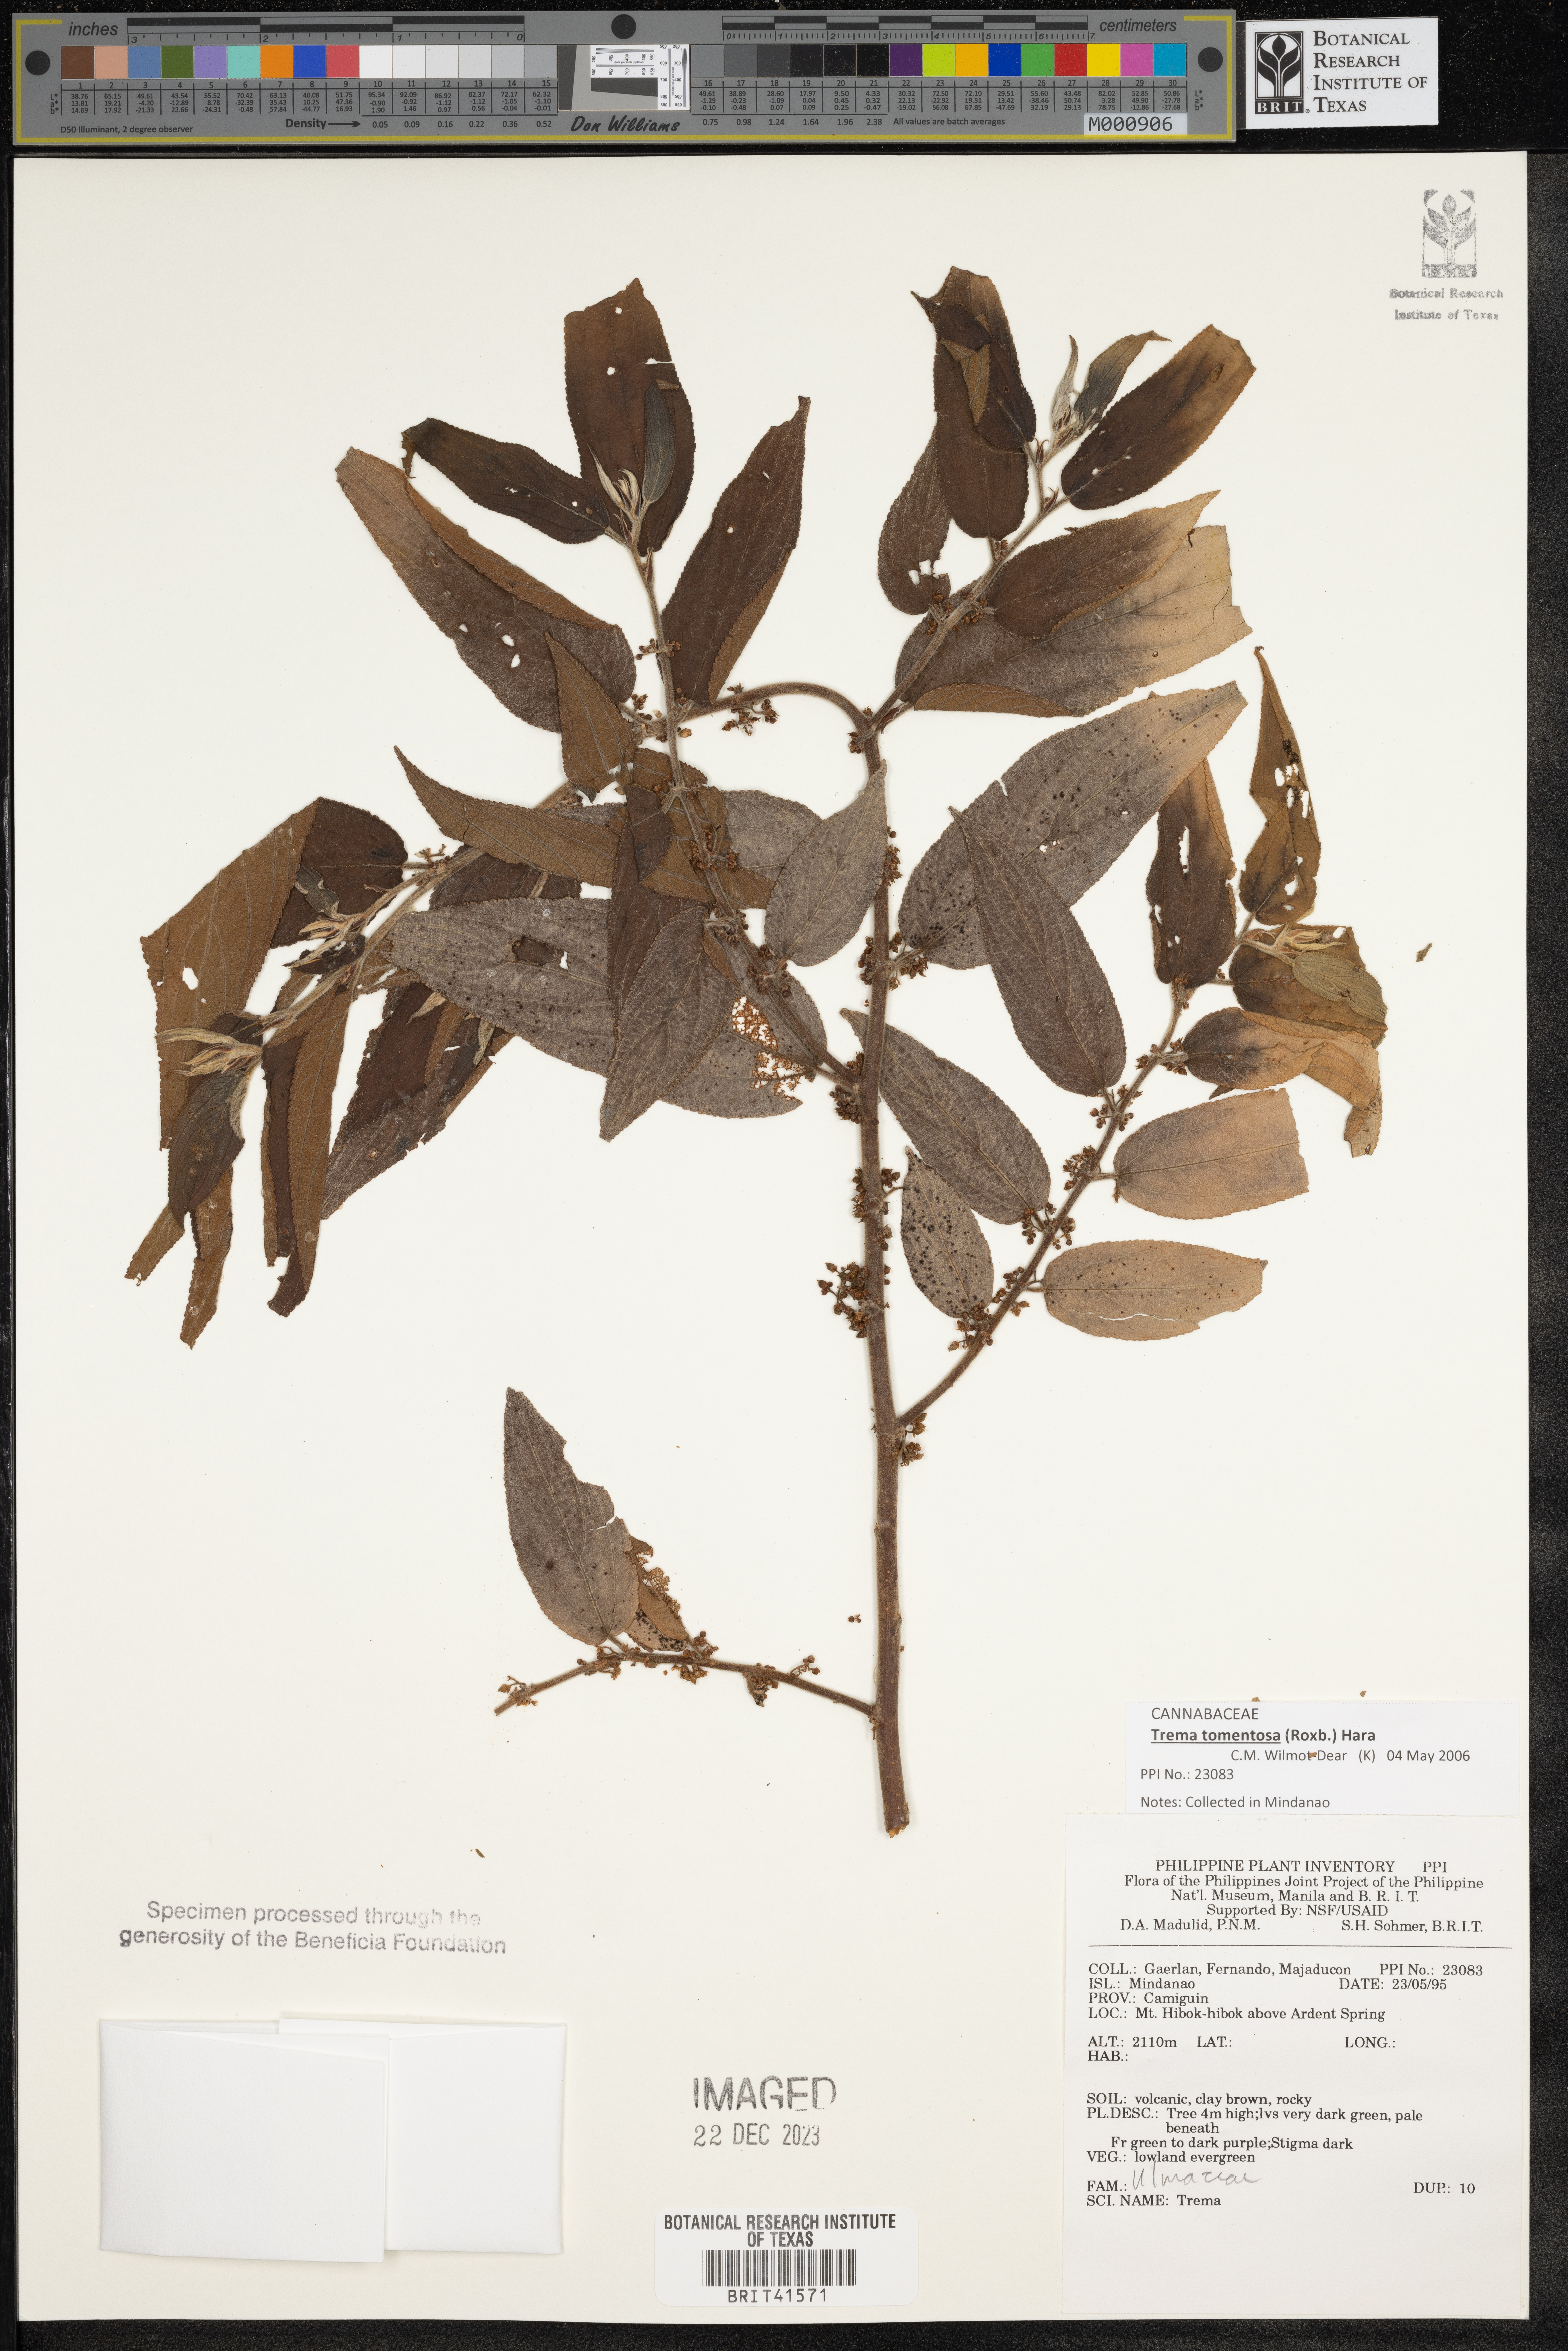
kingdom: Plantae
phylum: Tracheophyta
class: Magnoliopsida
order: Rosales
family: Cannabaceae
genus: Trema
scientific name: Trema
